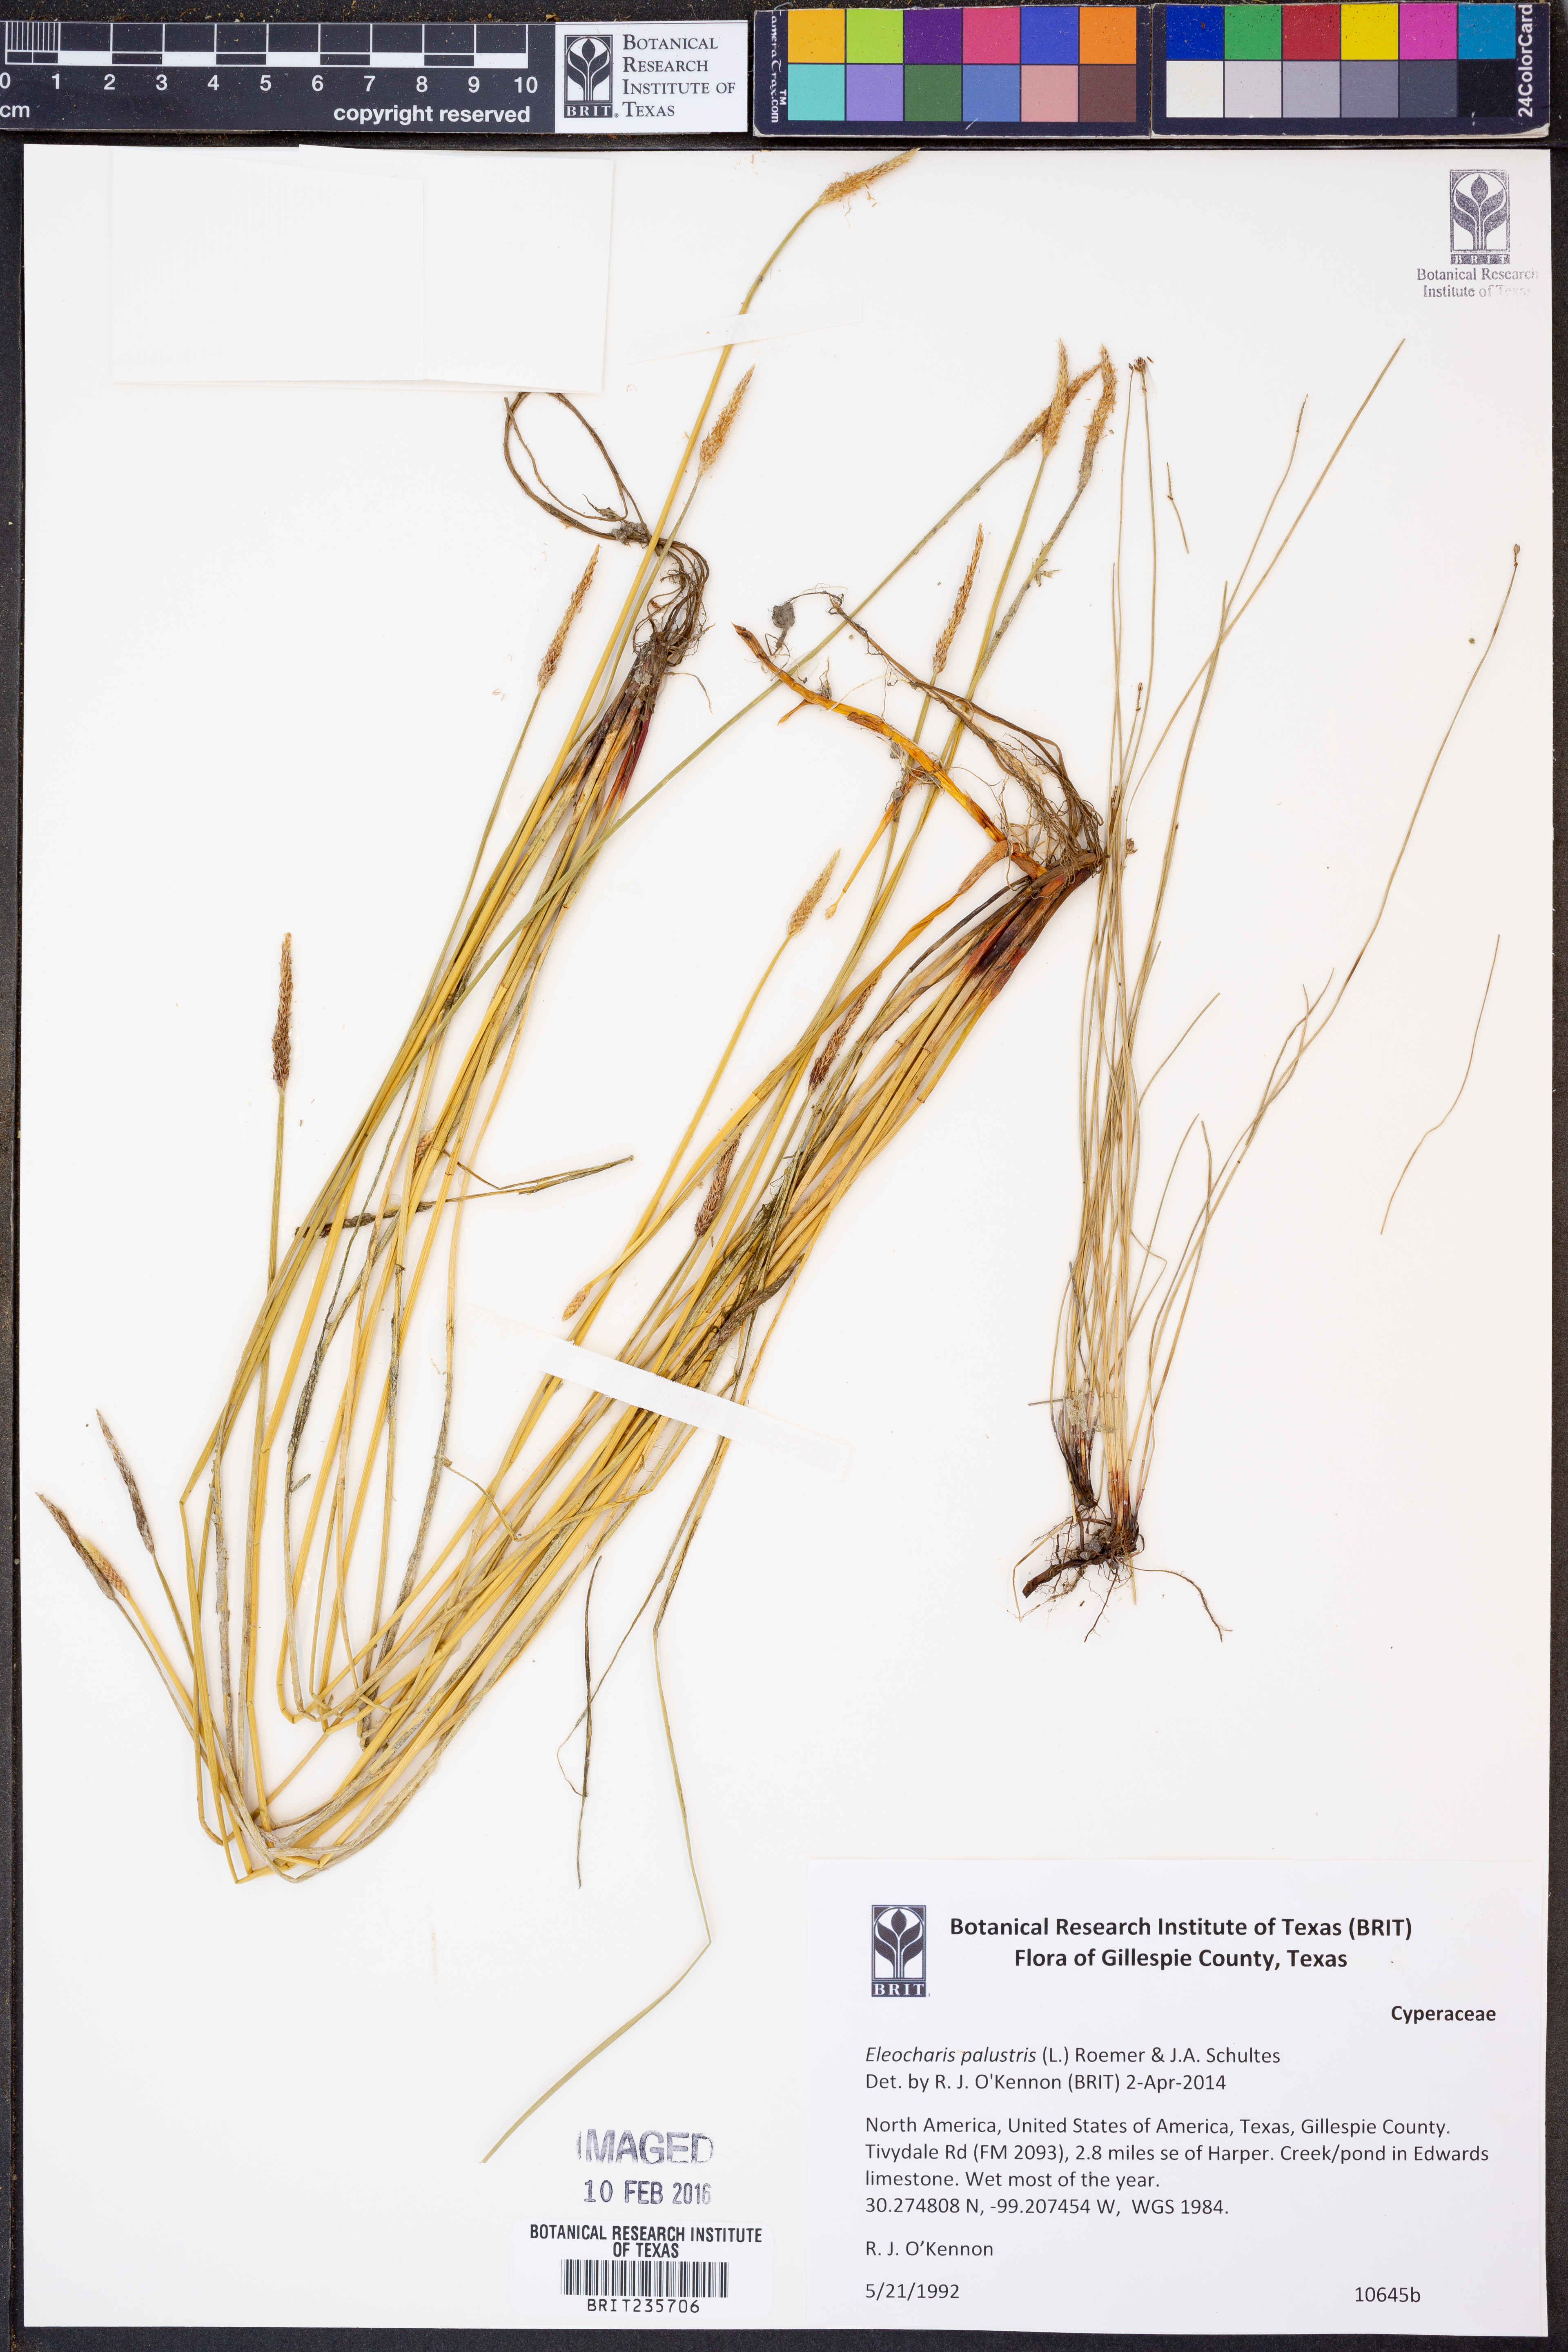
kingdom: Plantae
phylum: Tracheophyta
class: Liliopsida
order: Poales
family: Cyperaceae
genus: Eleocharis
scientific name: Eleocharis palustris
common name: Common spike-rush
